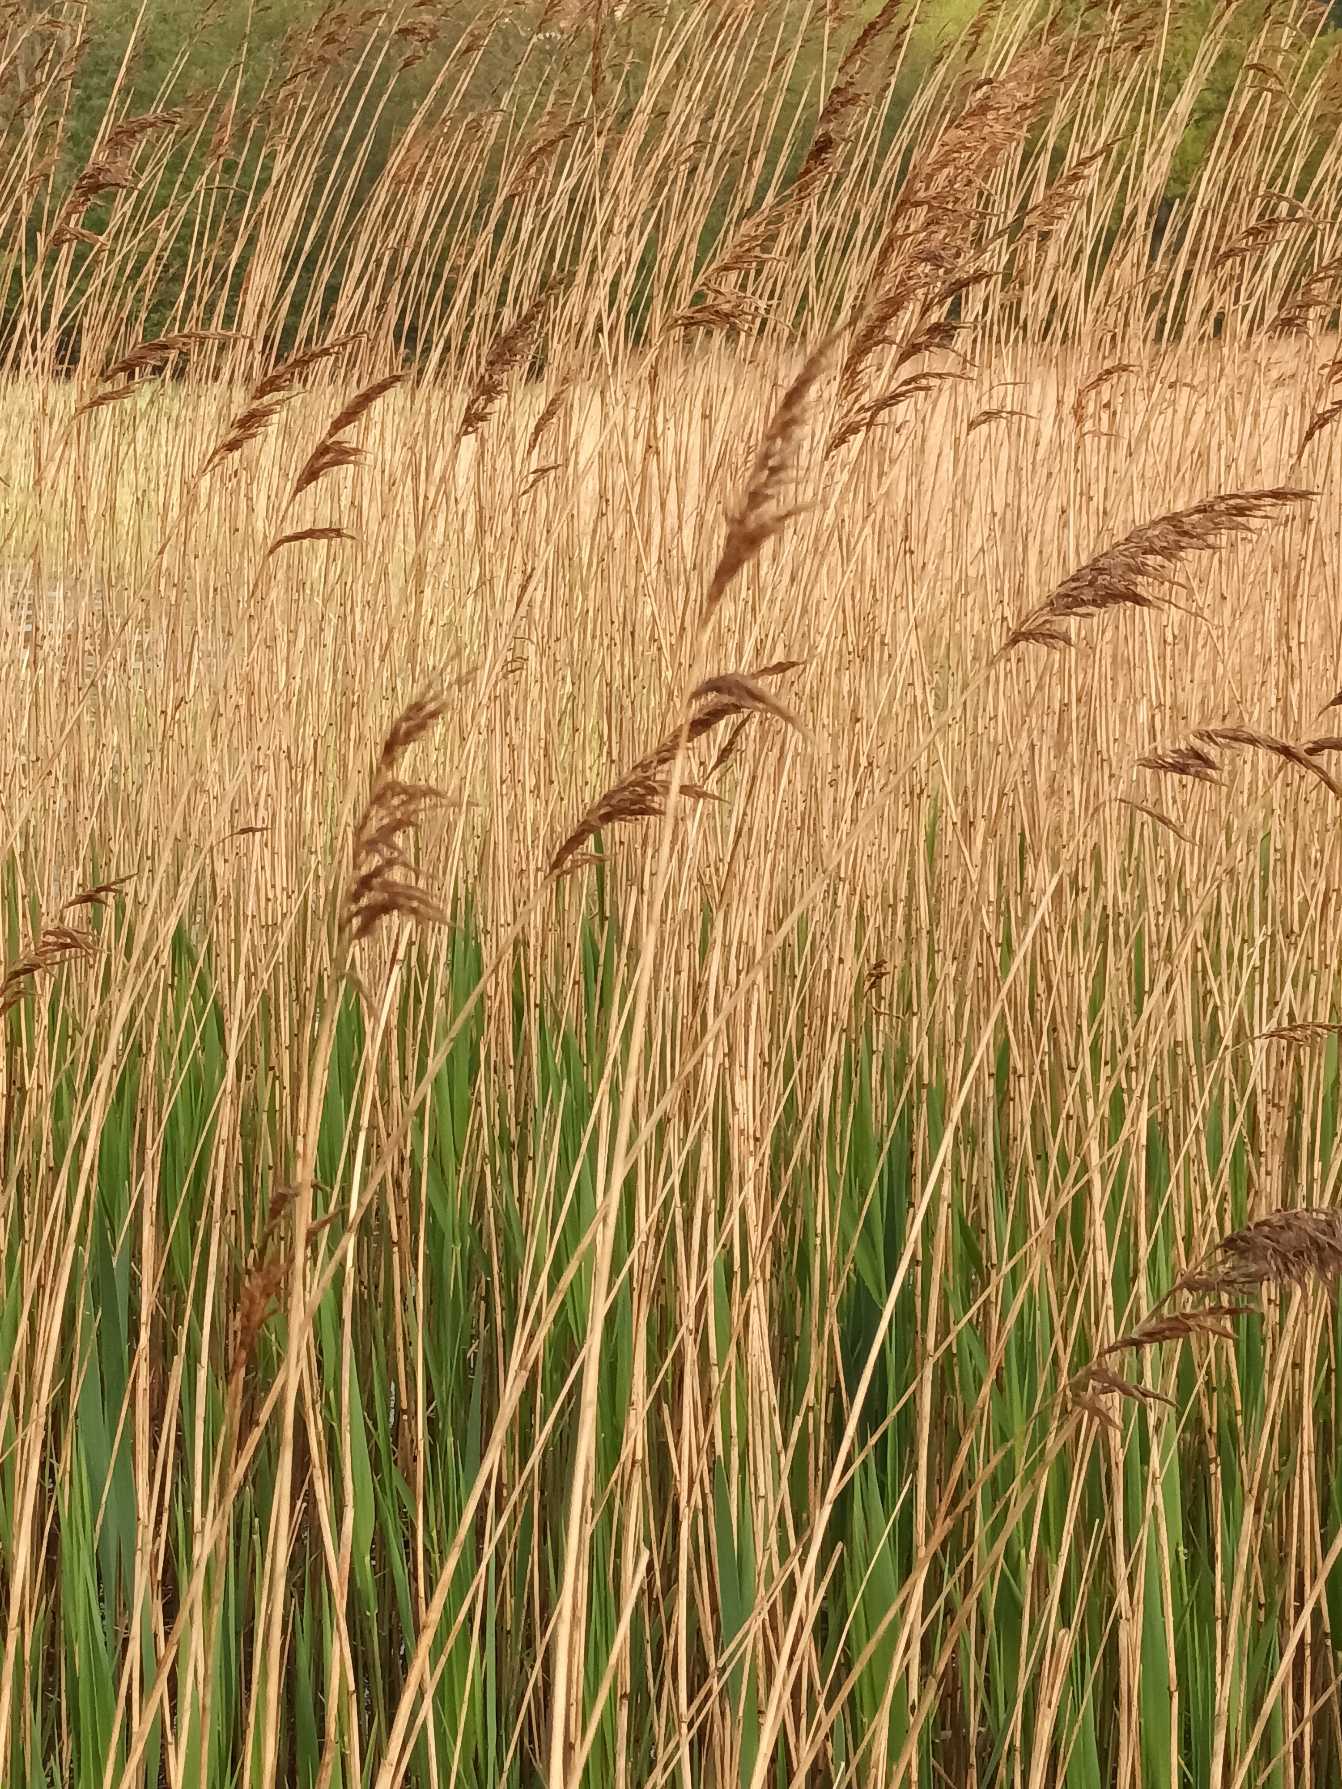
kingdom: Plantae
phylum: Tracheophyta
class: Liliopsida
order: Poales
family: Poaceae
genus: Phragmites
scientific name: Phragmites australis
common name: Tagrør
